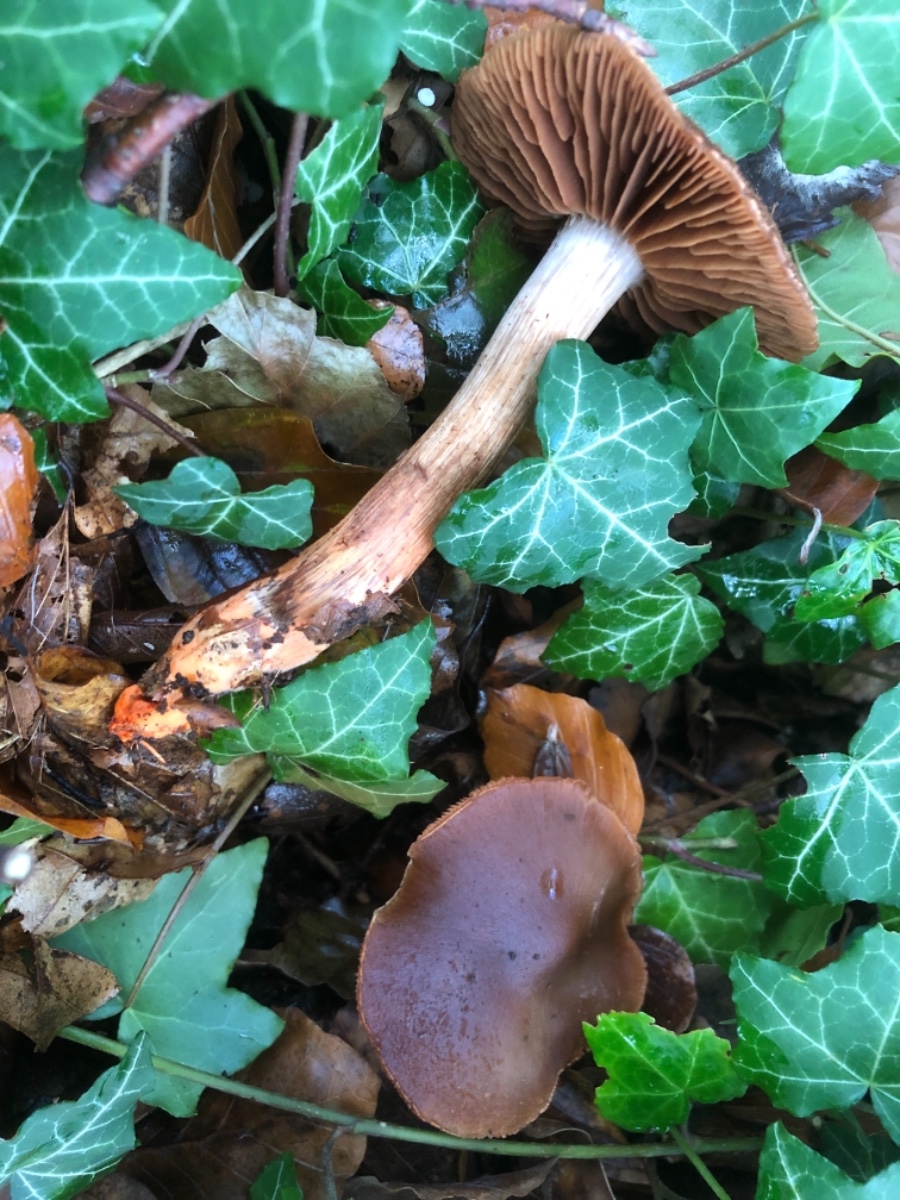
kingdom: Fungi
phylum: Basidiomycota
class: Agaricomycetes
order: Agaricales
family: Cortinariaceae
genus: Cortinarius
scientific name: Cortinarius bulliardii
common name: Bulliards slørhat
